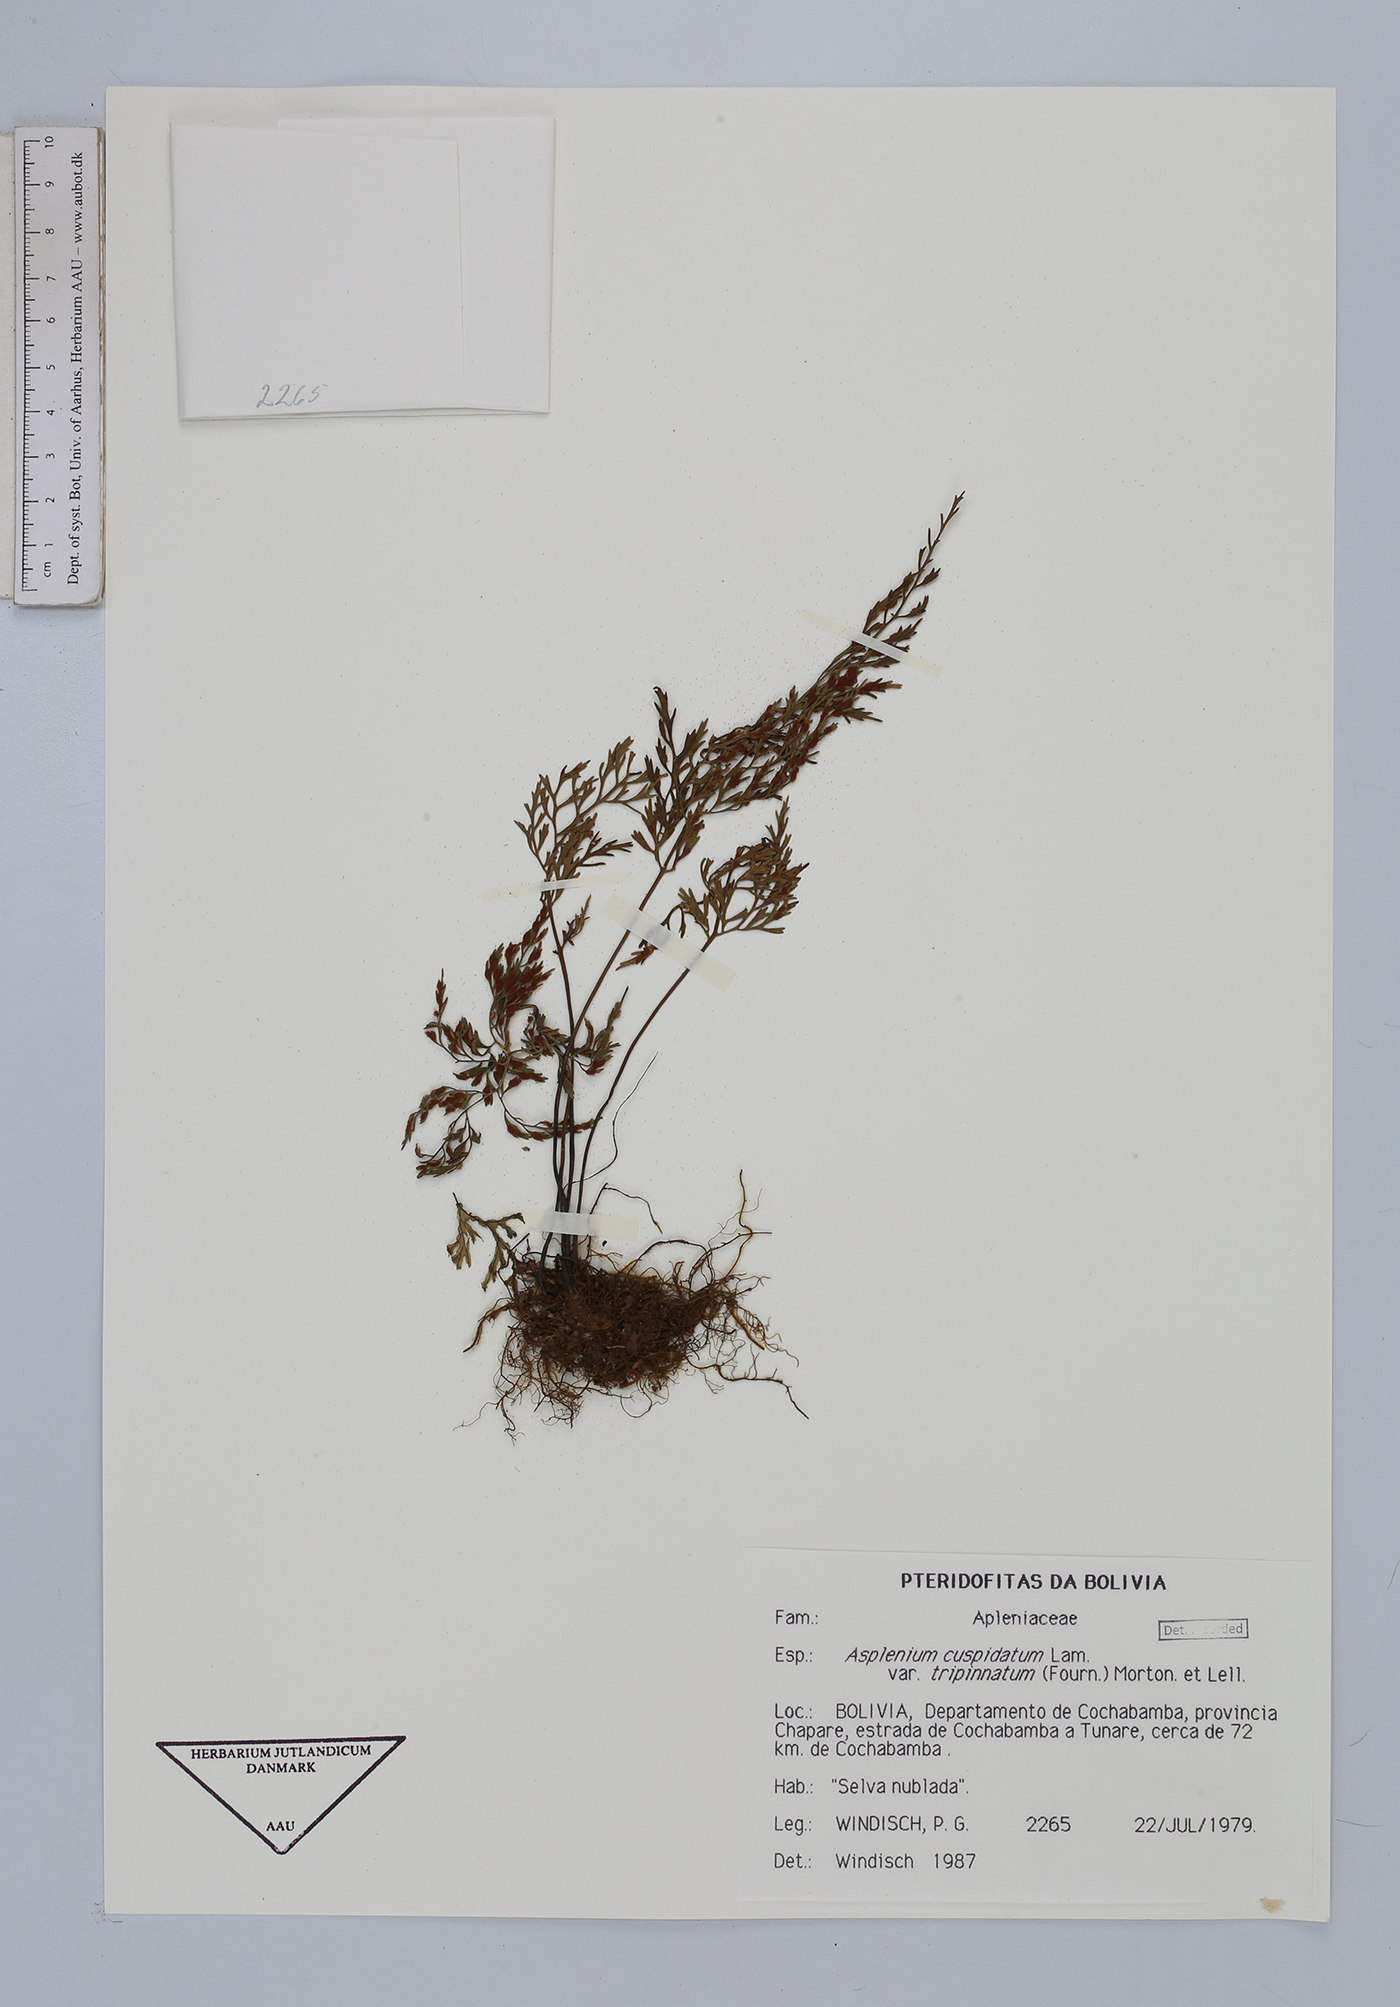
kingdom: Plantae
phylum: Tracheophyta
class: Polypodiopsida
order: Polypodiales
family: Aspleniaceae
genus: Asplenium
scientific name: Asplenium fragrans
